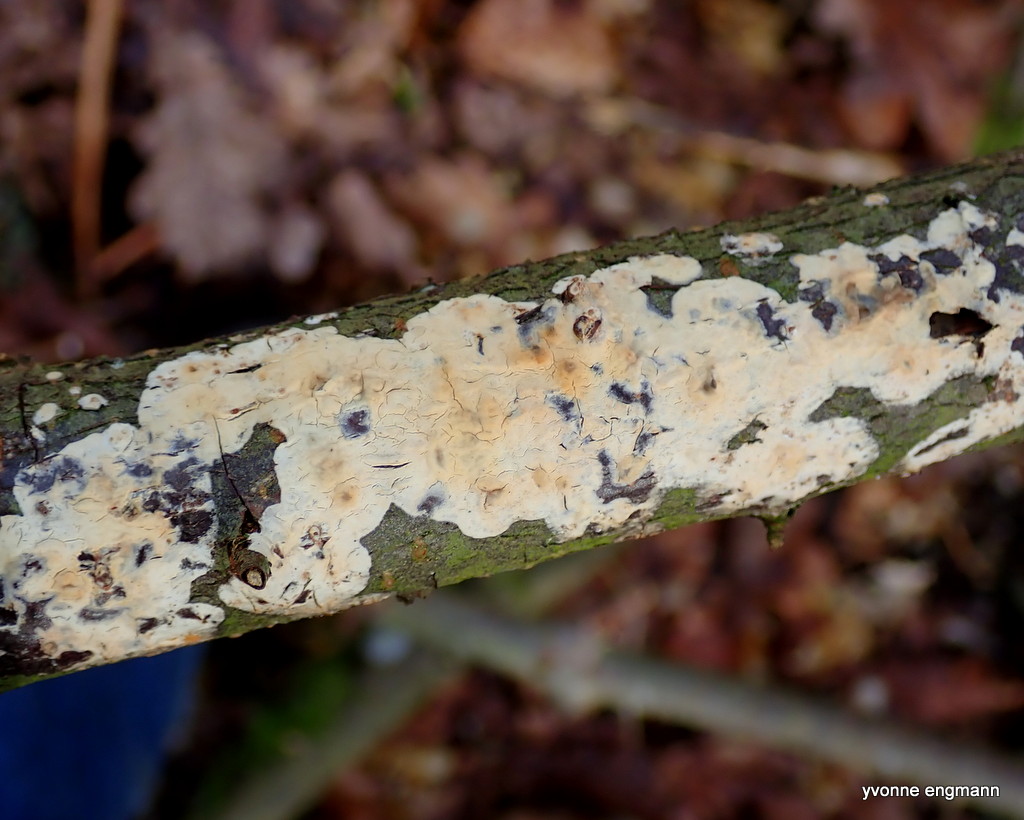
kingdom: Fungi
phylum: Basidiomycota
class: Agaricomycetes
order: Agaricales
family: Physalacriaceae
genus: Cylindrobasidium
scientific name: Cylindrobasidium evolvens
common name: sprækkehinde
